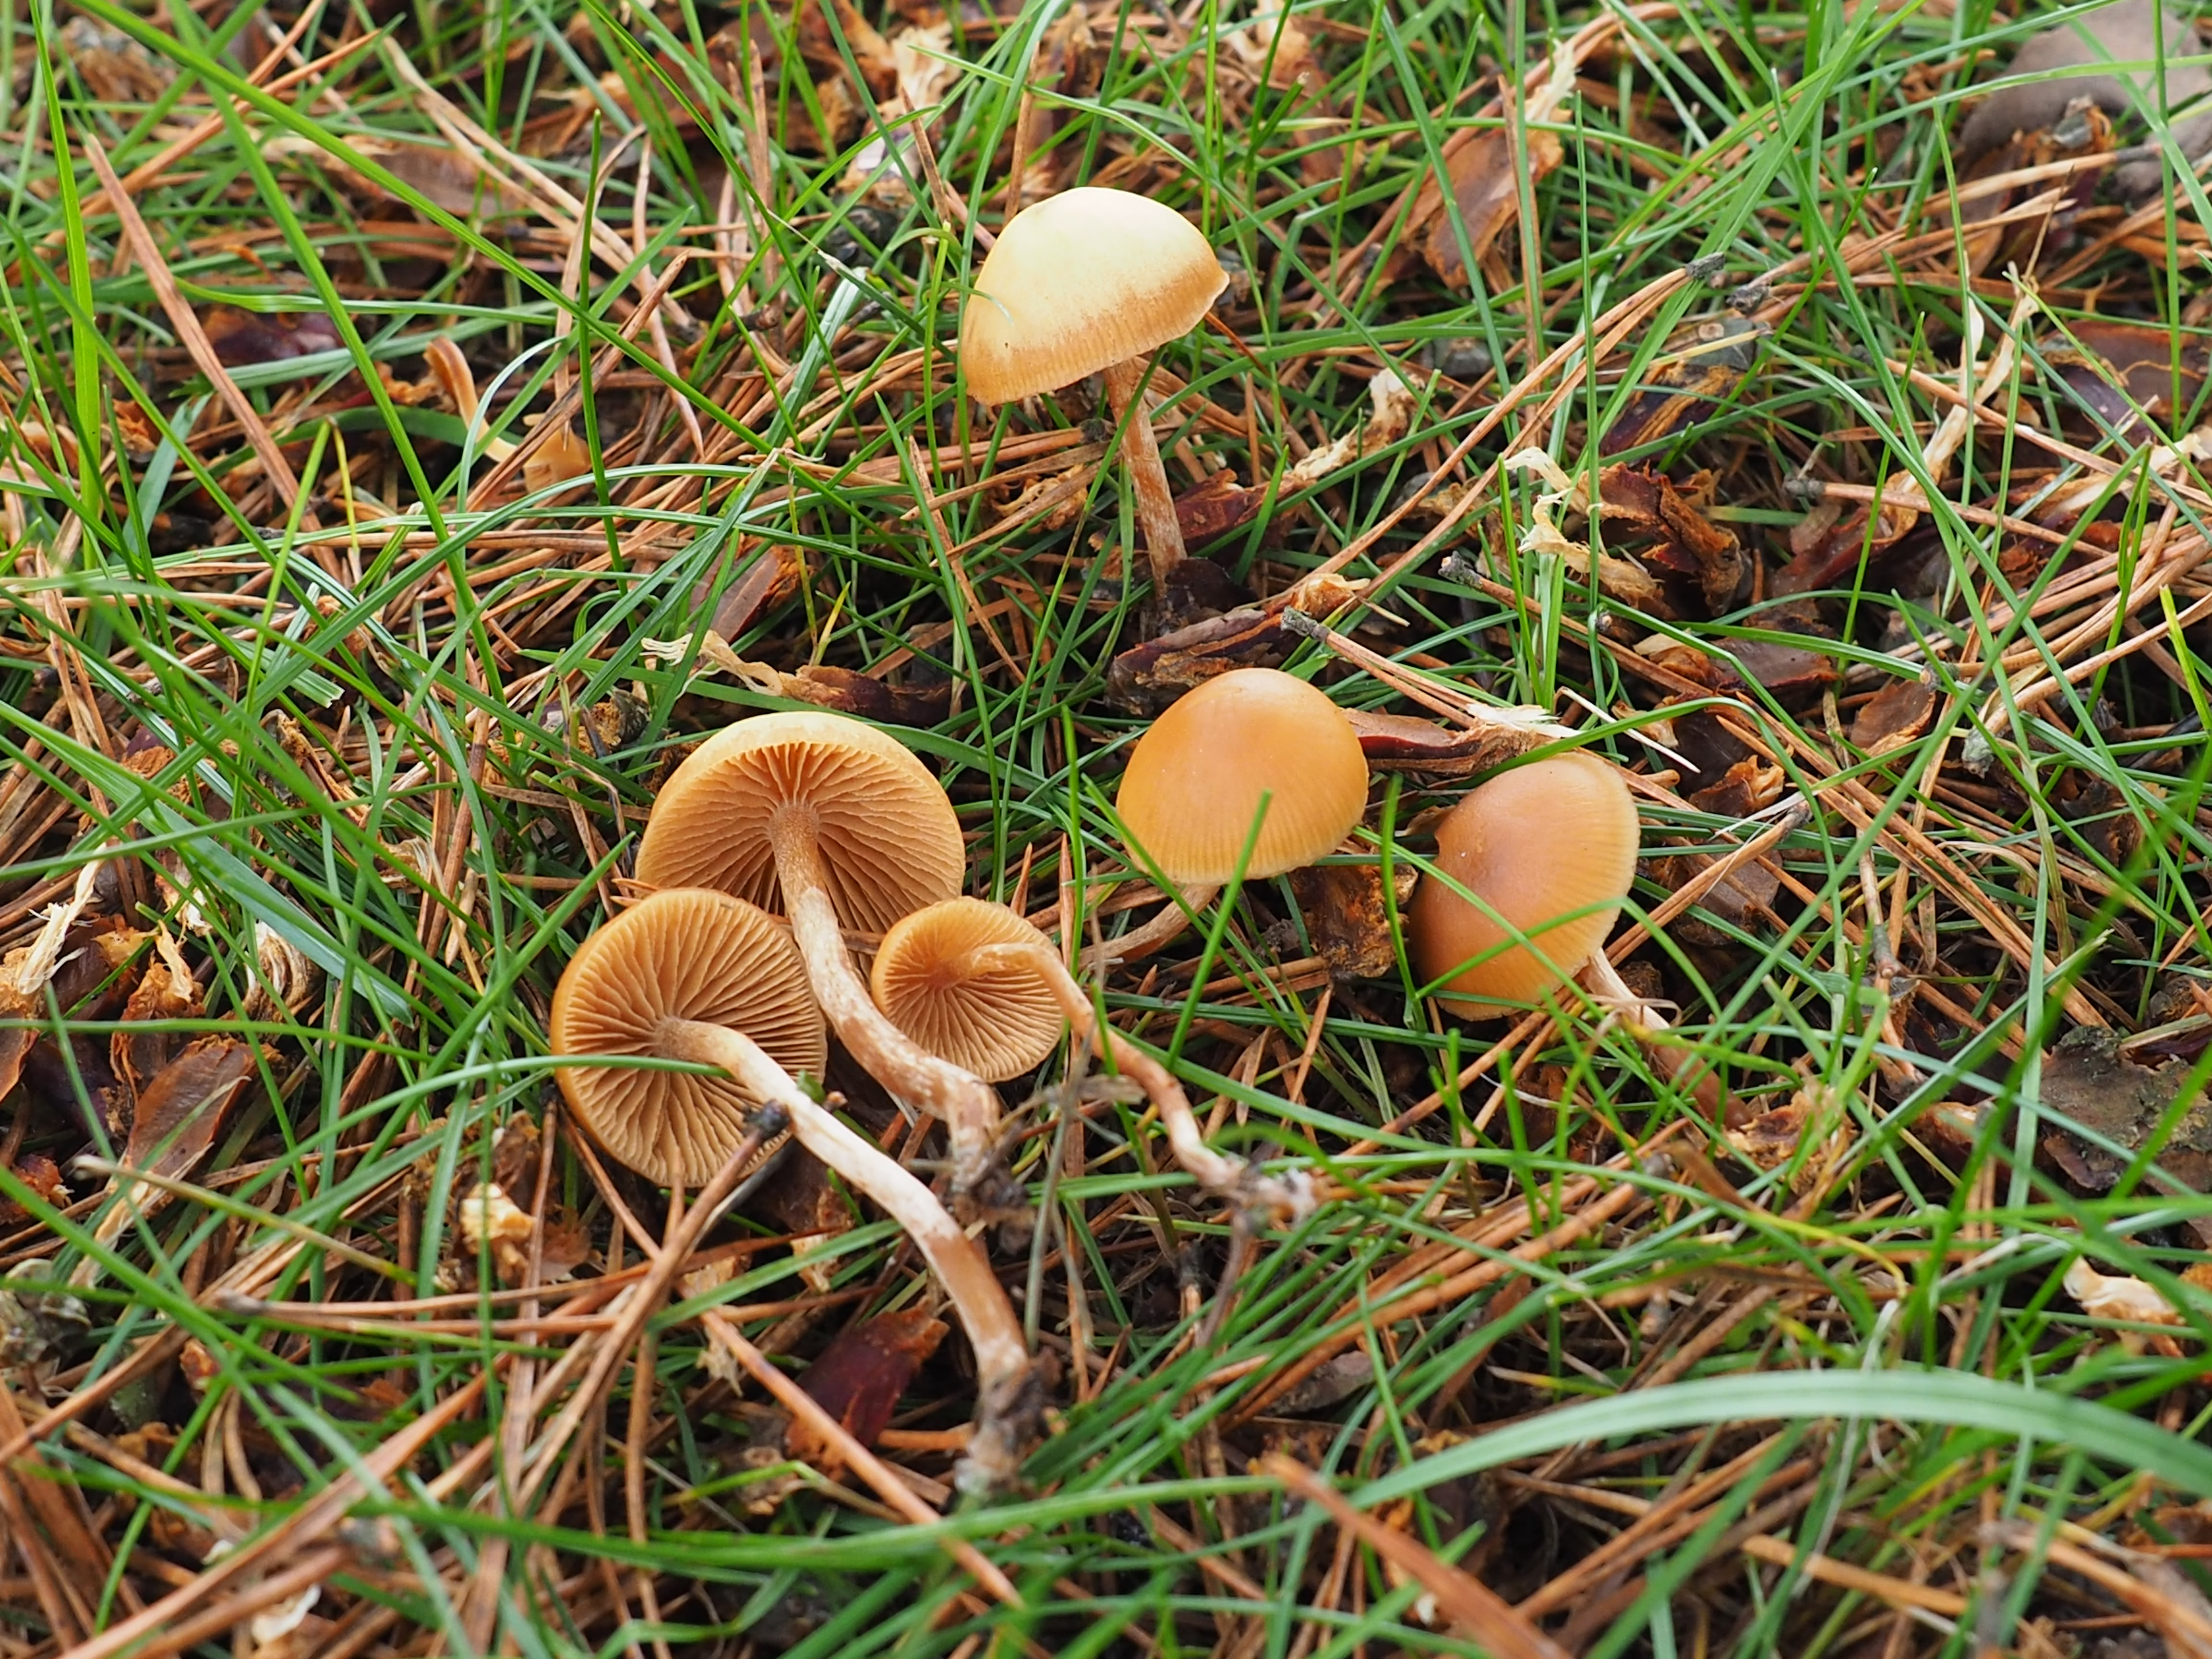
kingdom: Fungi
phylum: Basidiomycota
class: Agaricomycetes
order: Agaricales
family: Hymenogastraceae
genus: Galerina
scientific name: Galerina
